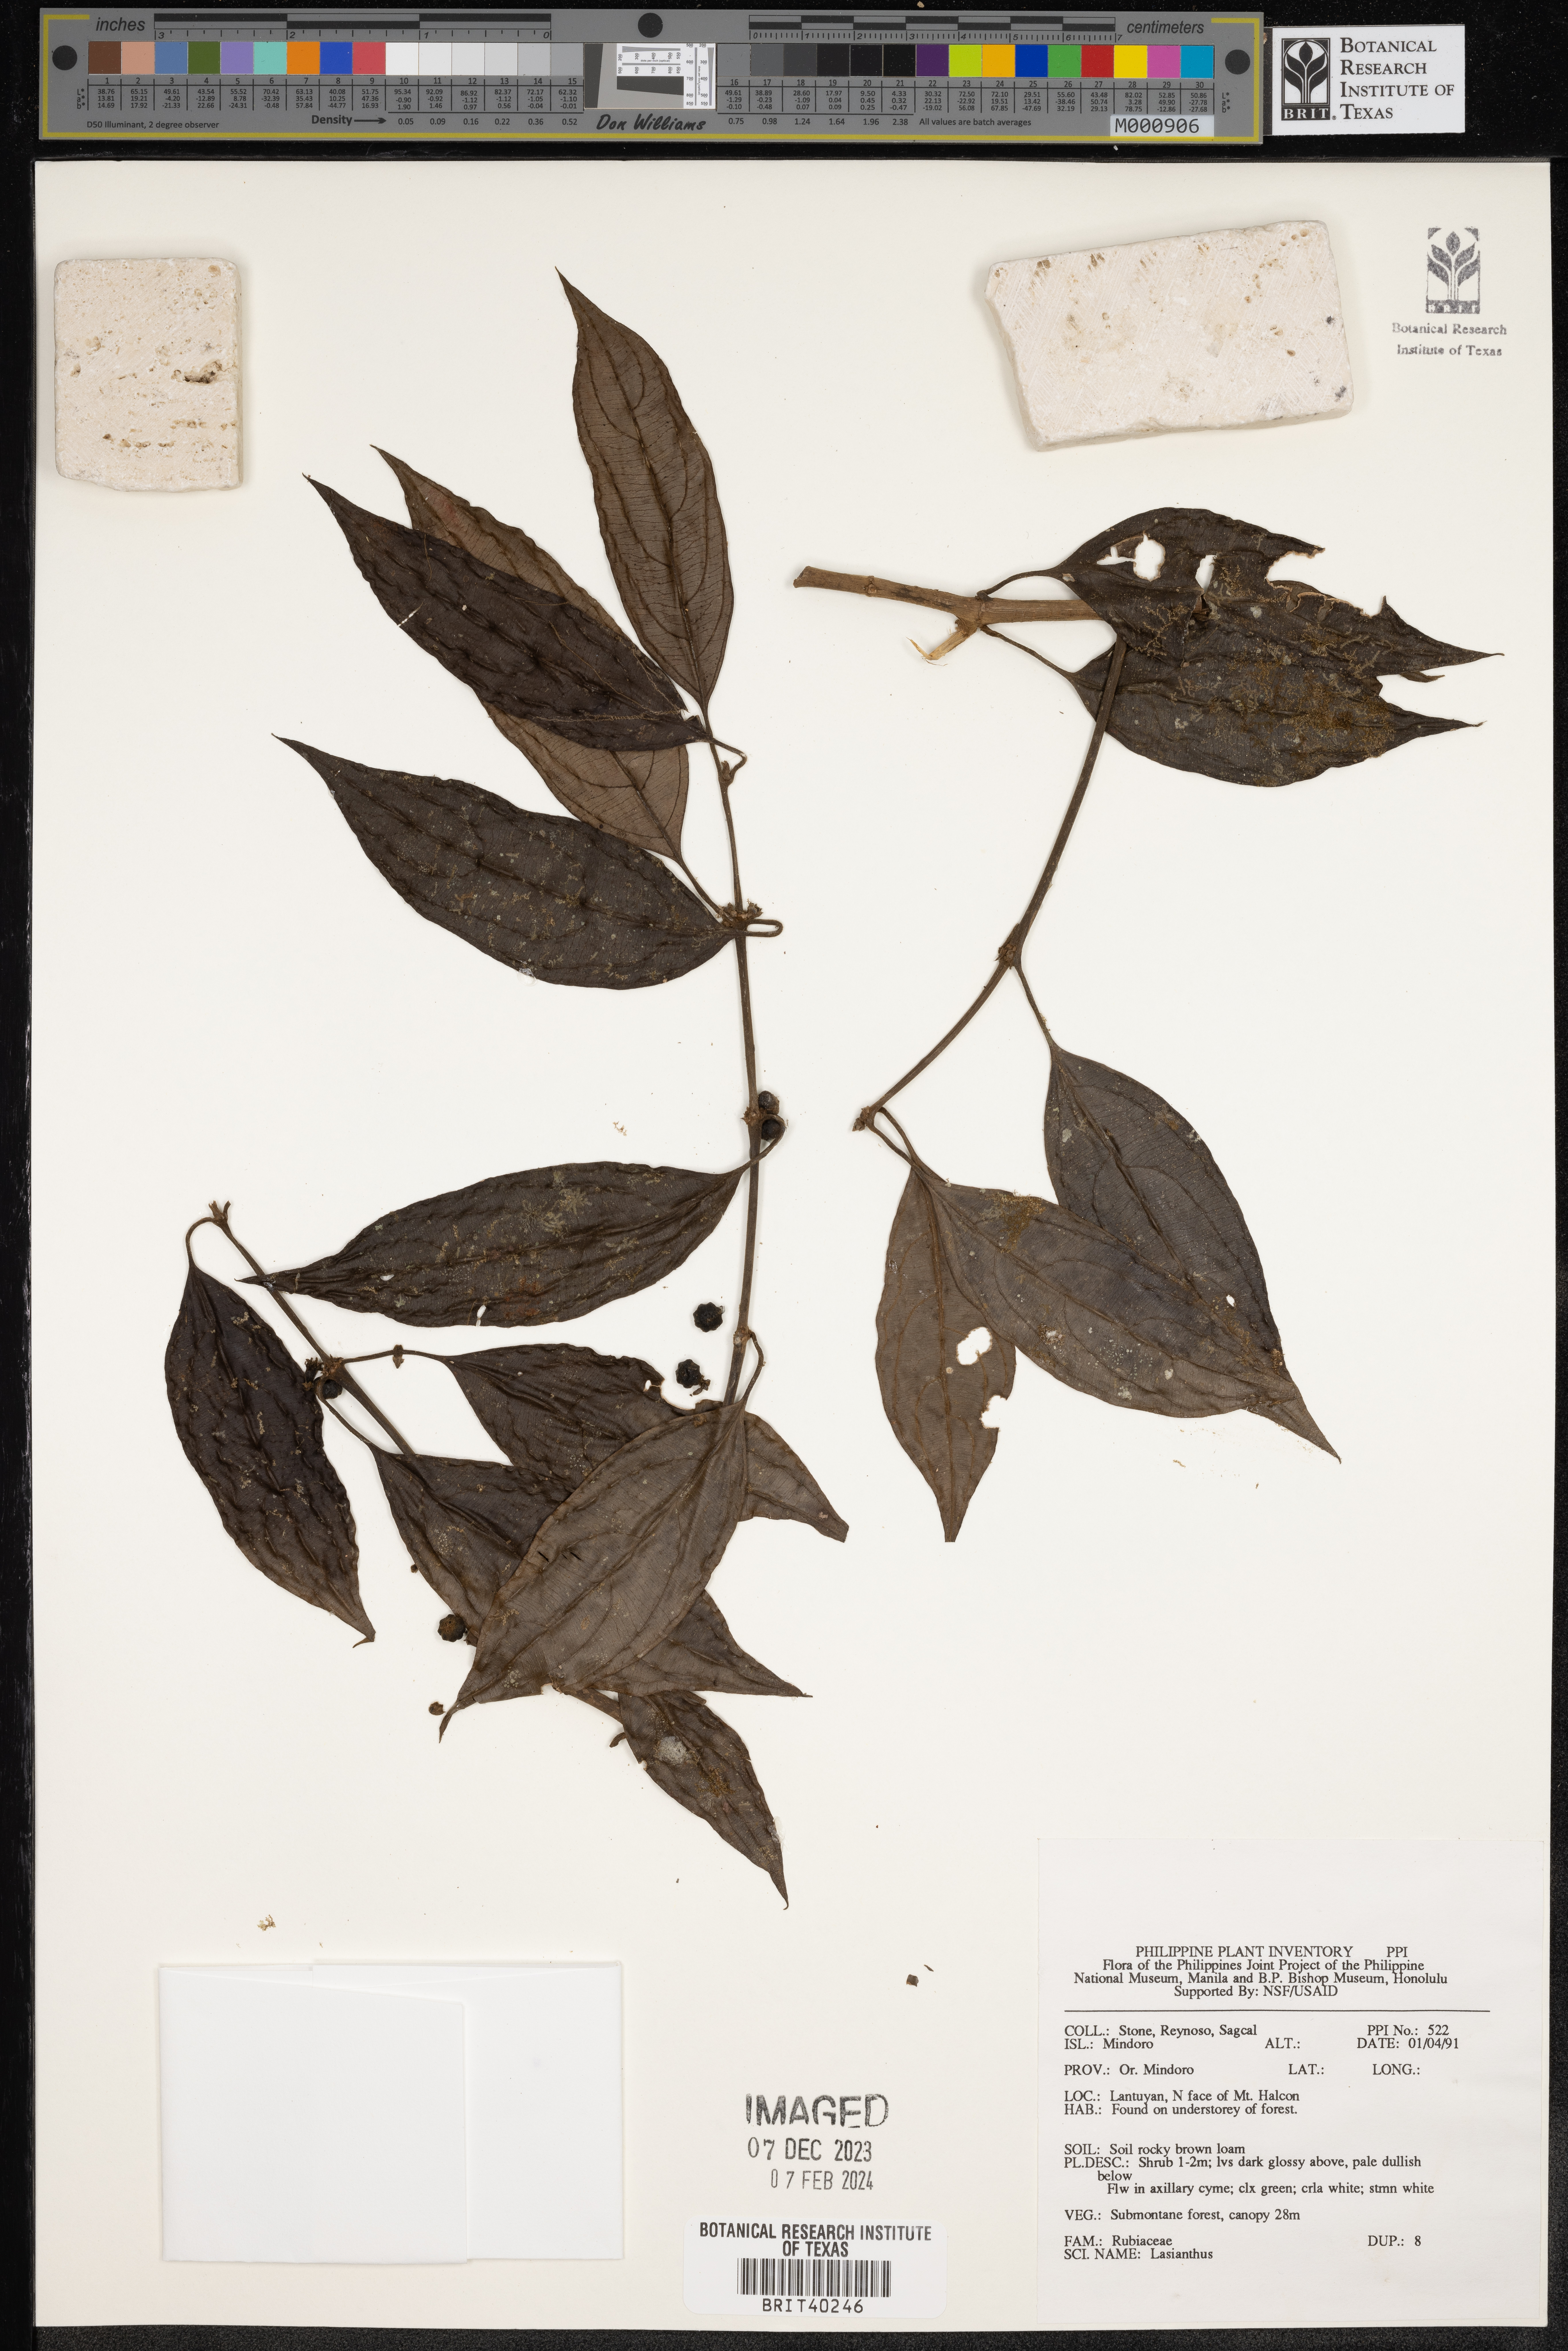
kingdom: Plantae
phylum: Tracheophyta
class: Magnoliopsida
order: Gentianales
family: Rubiaceae
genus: Lasianthus
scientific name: Lasianthus
